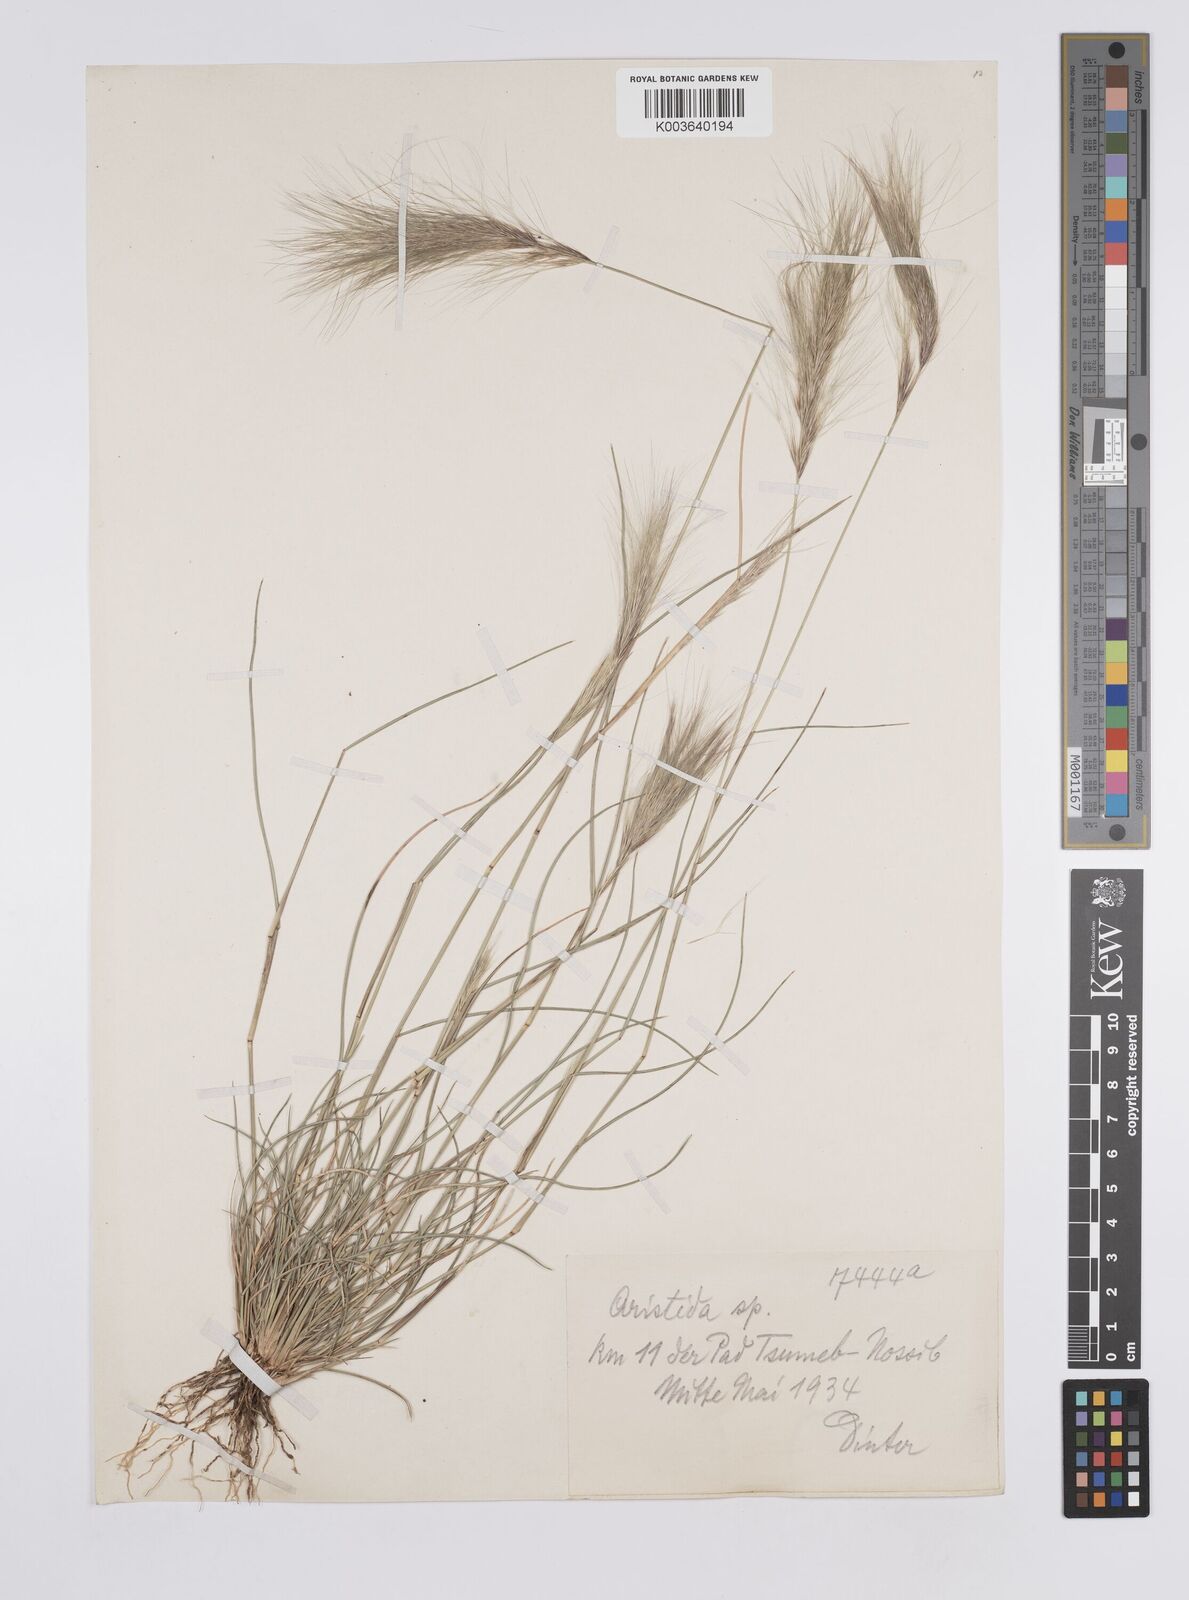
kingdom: Plantae
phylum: Tracheophyta
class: Liliopsida
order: Poales
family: Poaceae
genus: Aristida
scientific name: Aristida congesta
